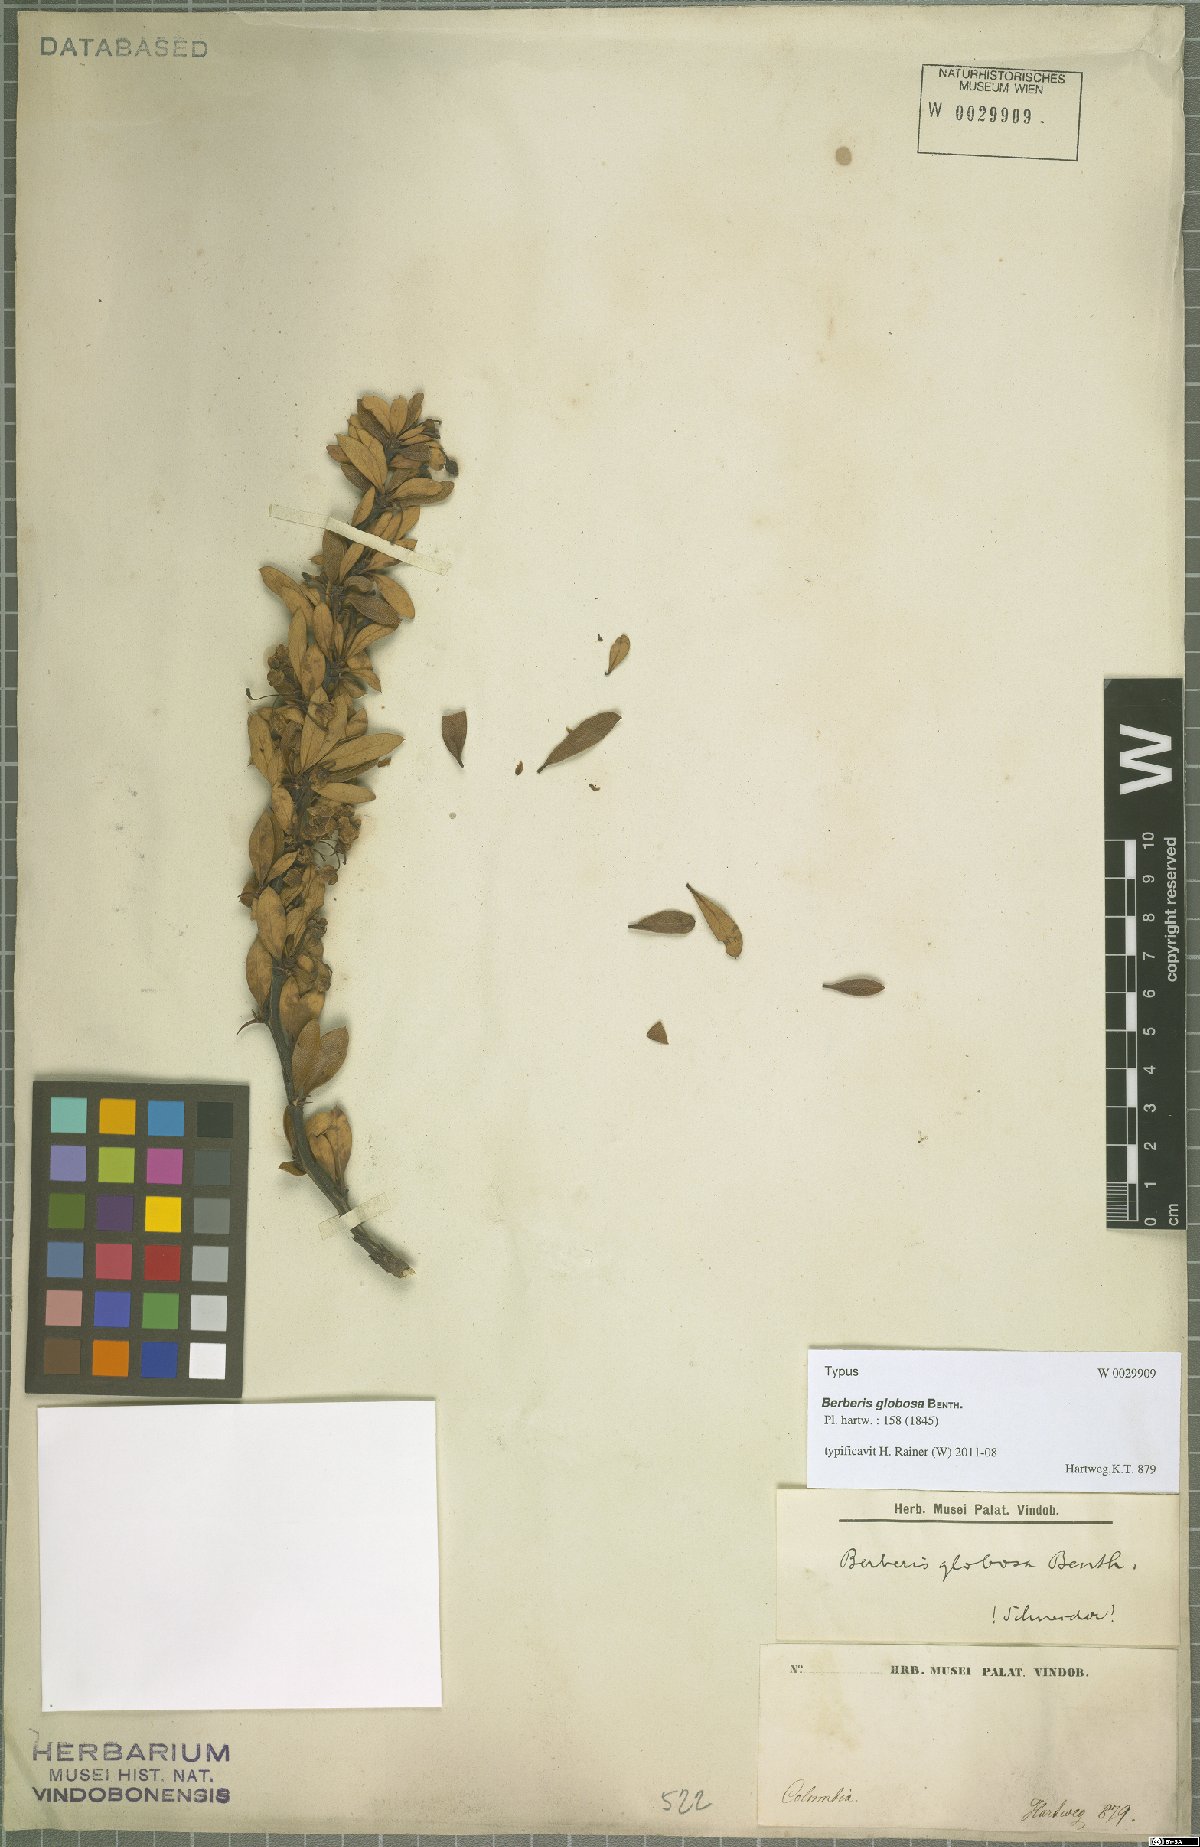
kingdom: Plantae
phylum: Tracheophyta
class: Magnoliopsida
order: Ranunculales
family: Berberidaceae
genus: Berberis
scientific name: Berberis rigidifolia
